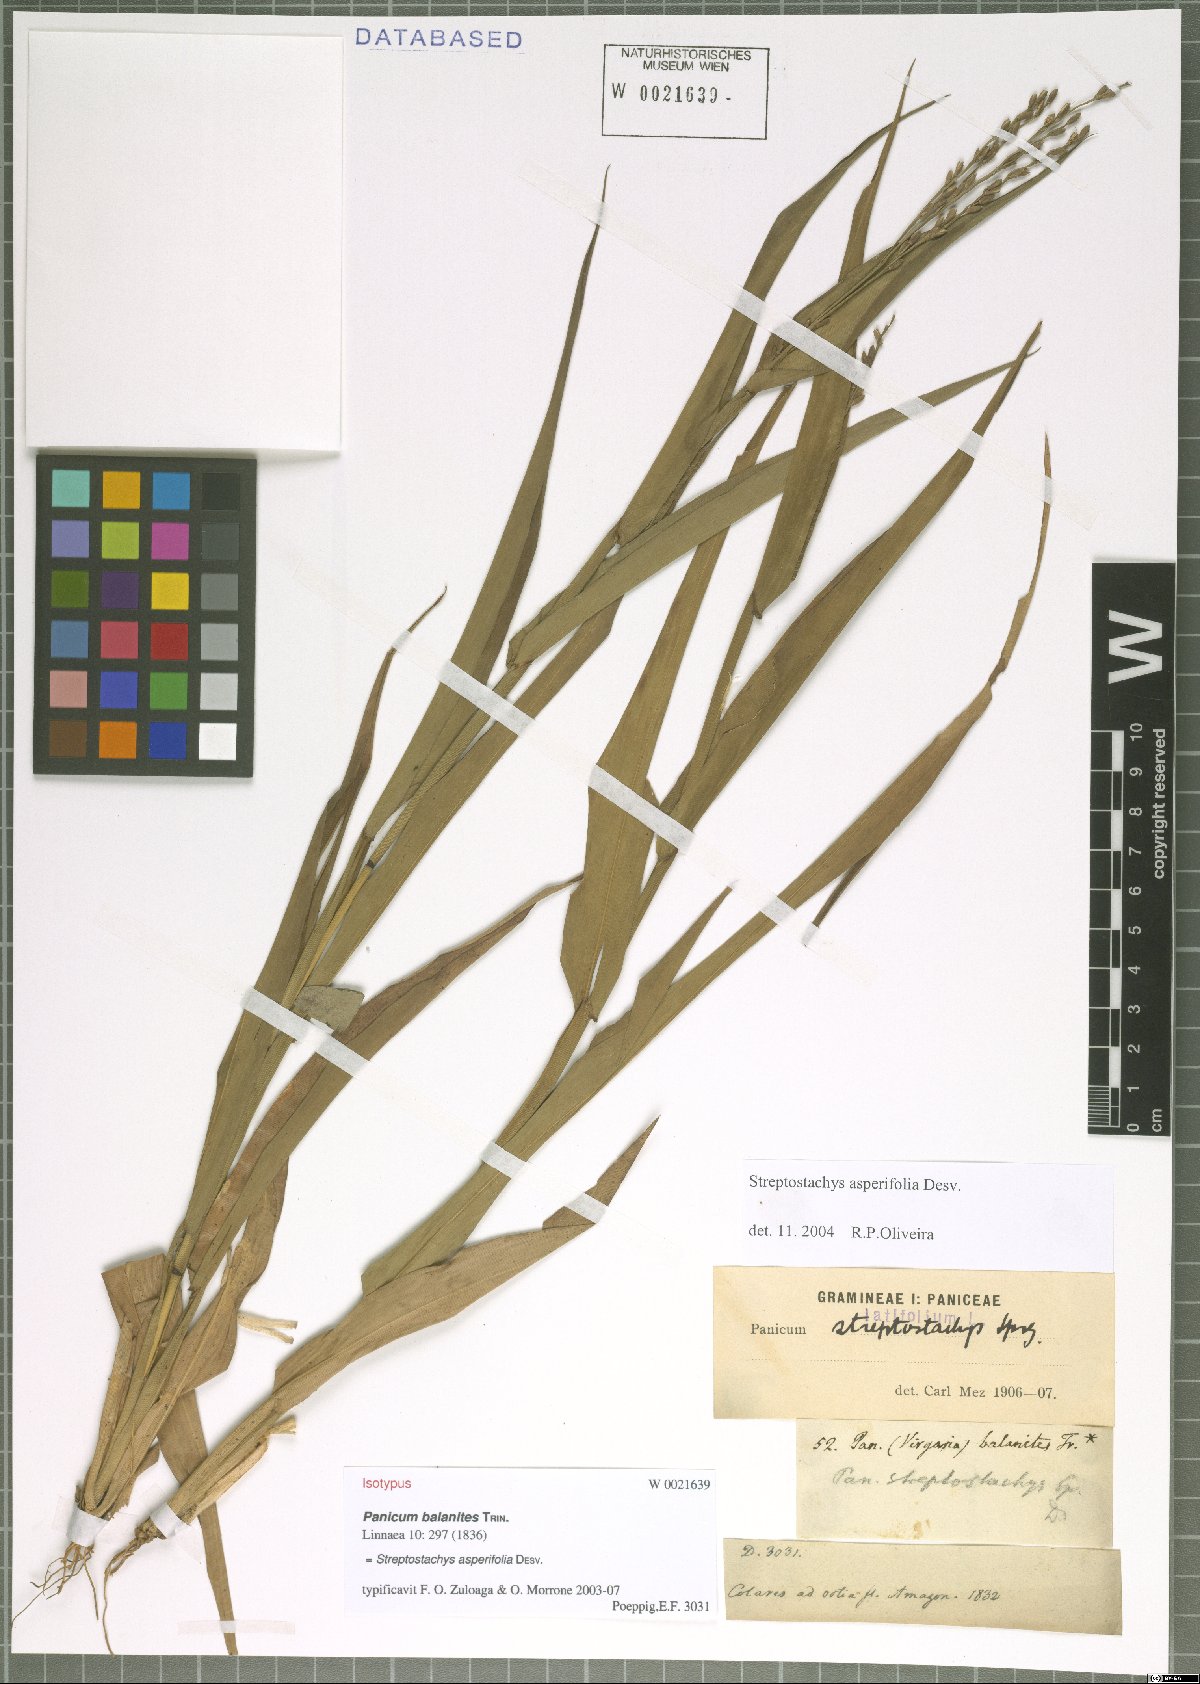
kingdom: Plantae
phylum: Tracheophyta
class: Liliopsida
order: Poales
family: Poaceae
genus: Streptostachys
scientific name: Streptostachys asperifolia
